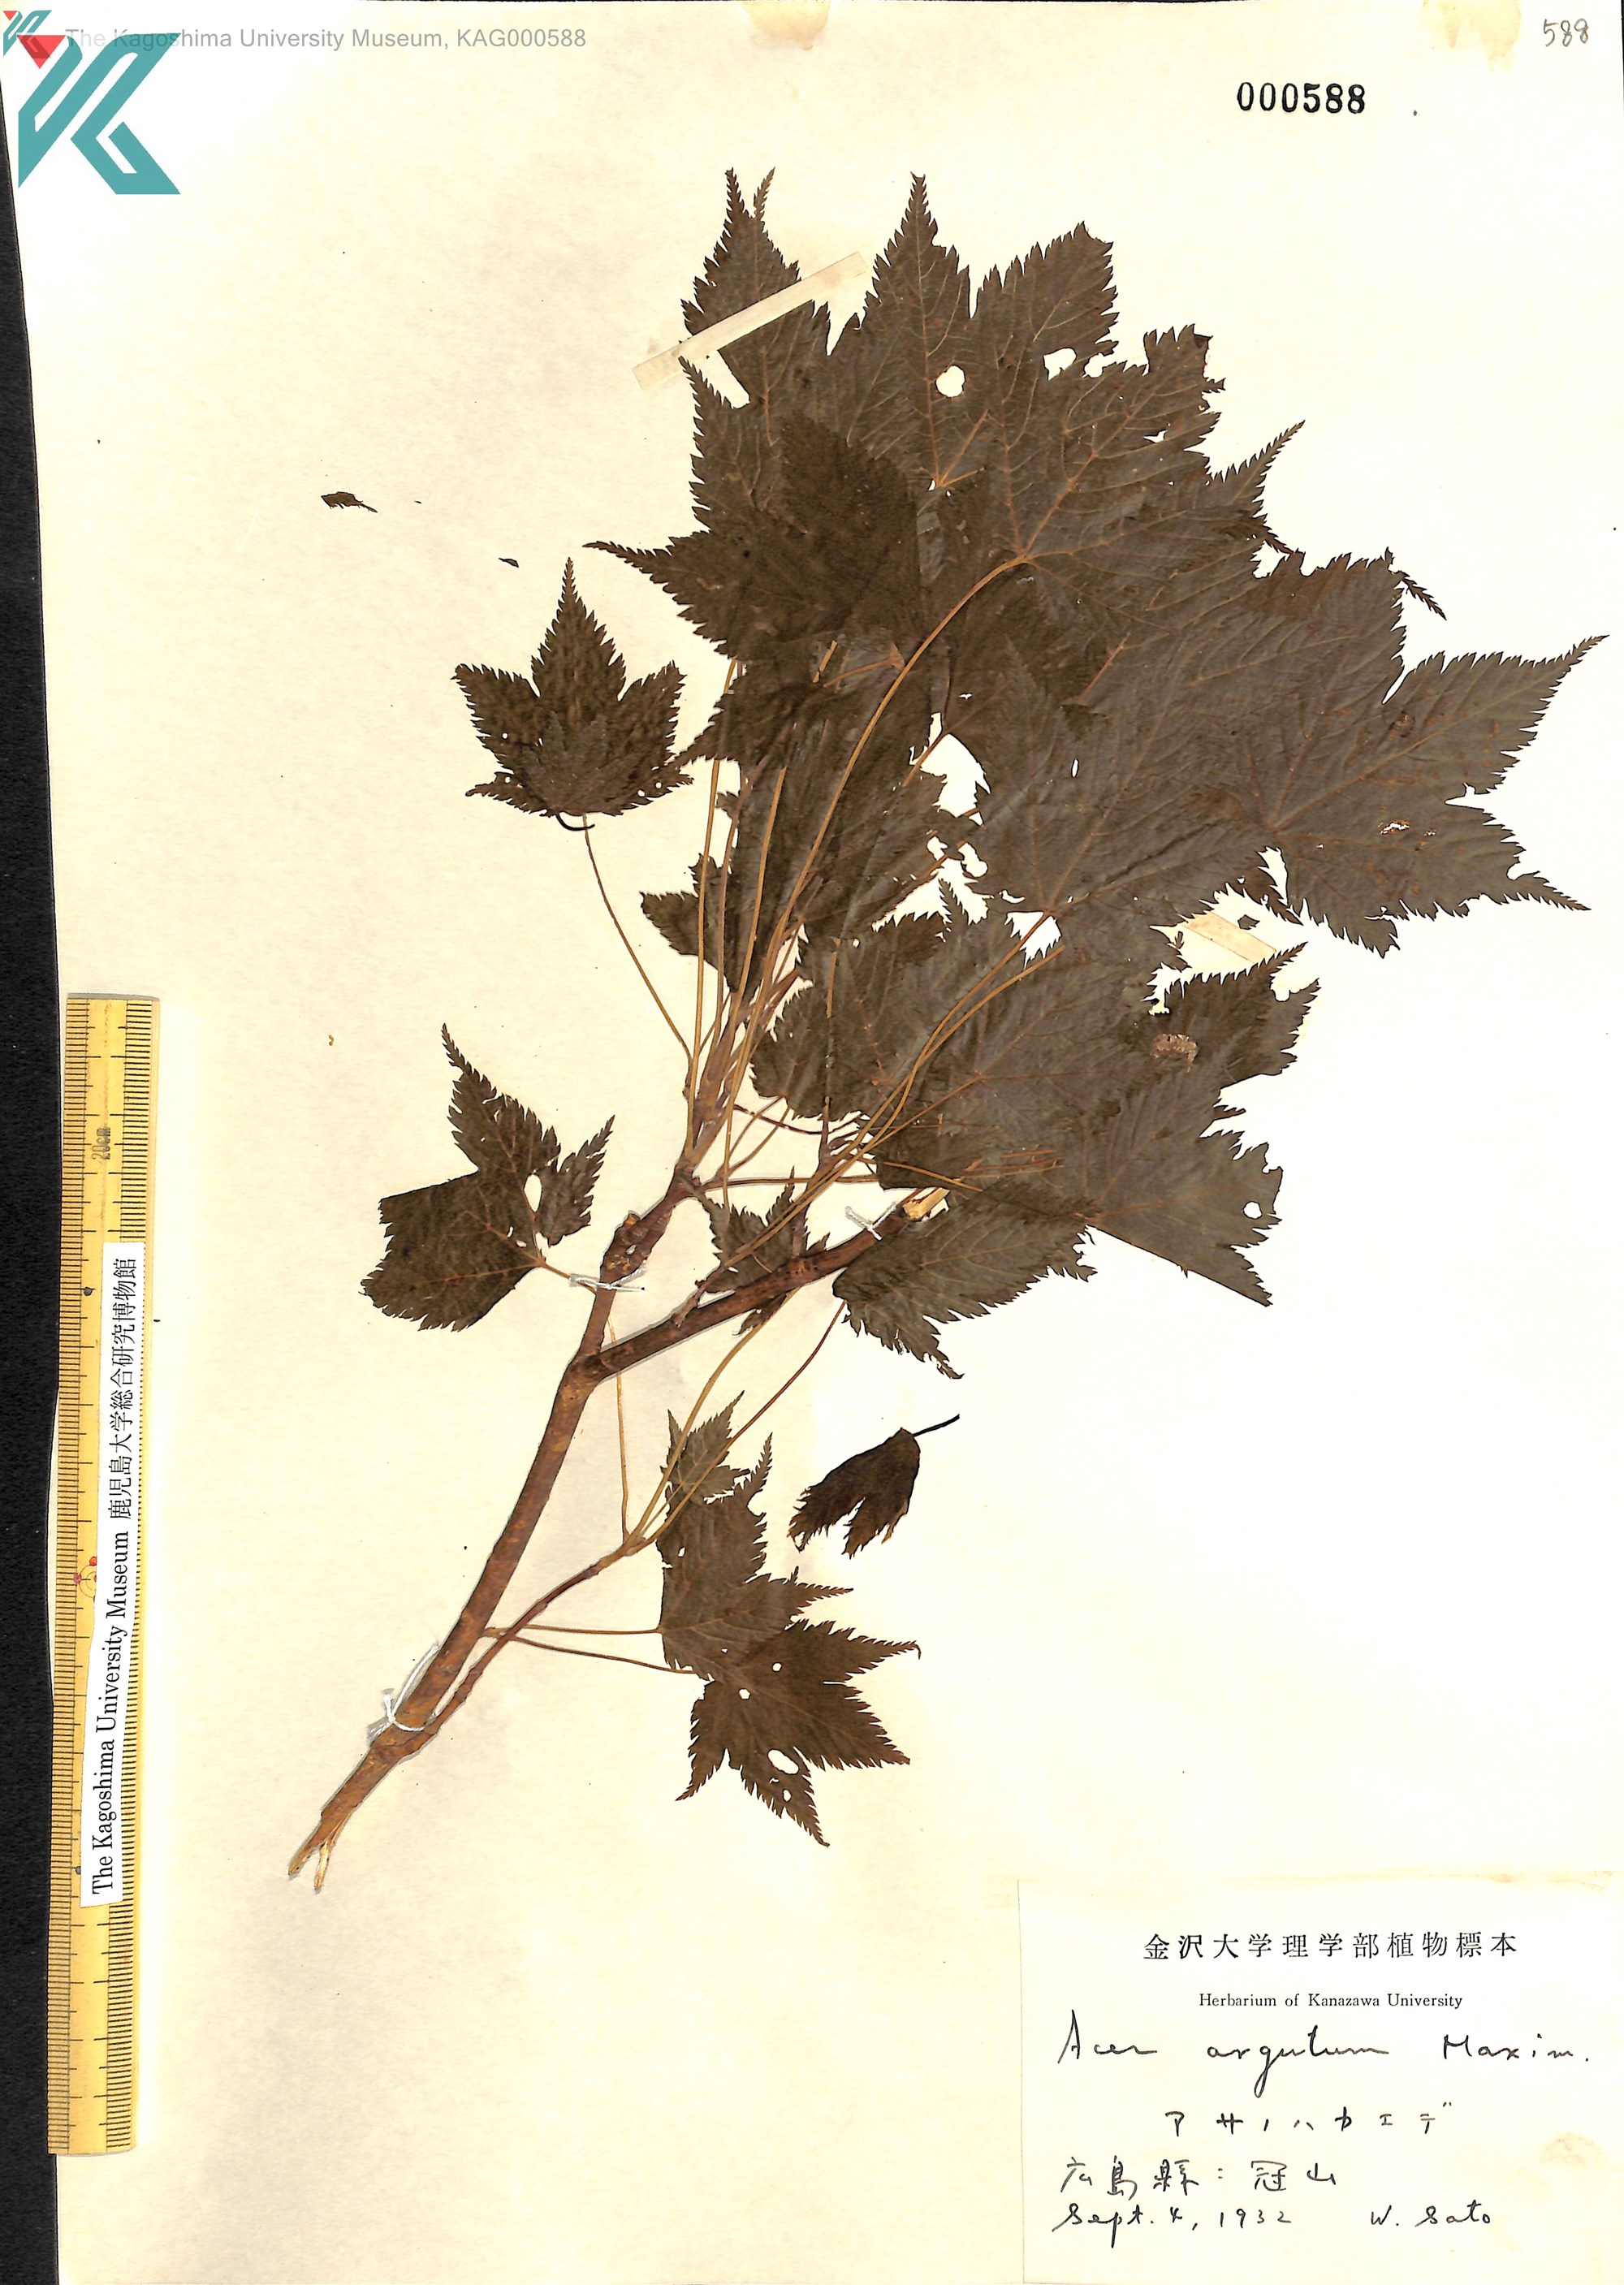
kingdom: Plantae
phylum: Tracheophyta
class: Magnoliopsida
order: Sapindales
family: Sapindaceae
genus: Acer
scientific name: Acer argutum
